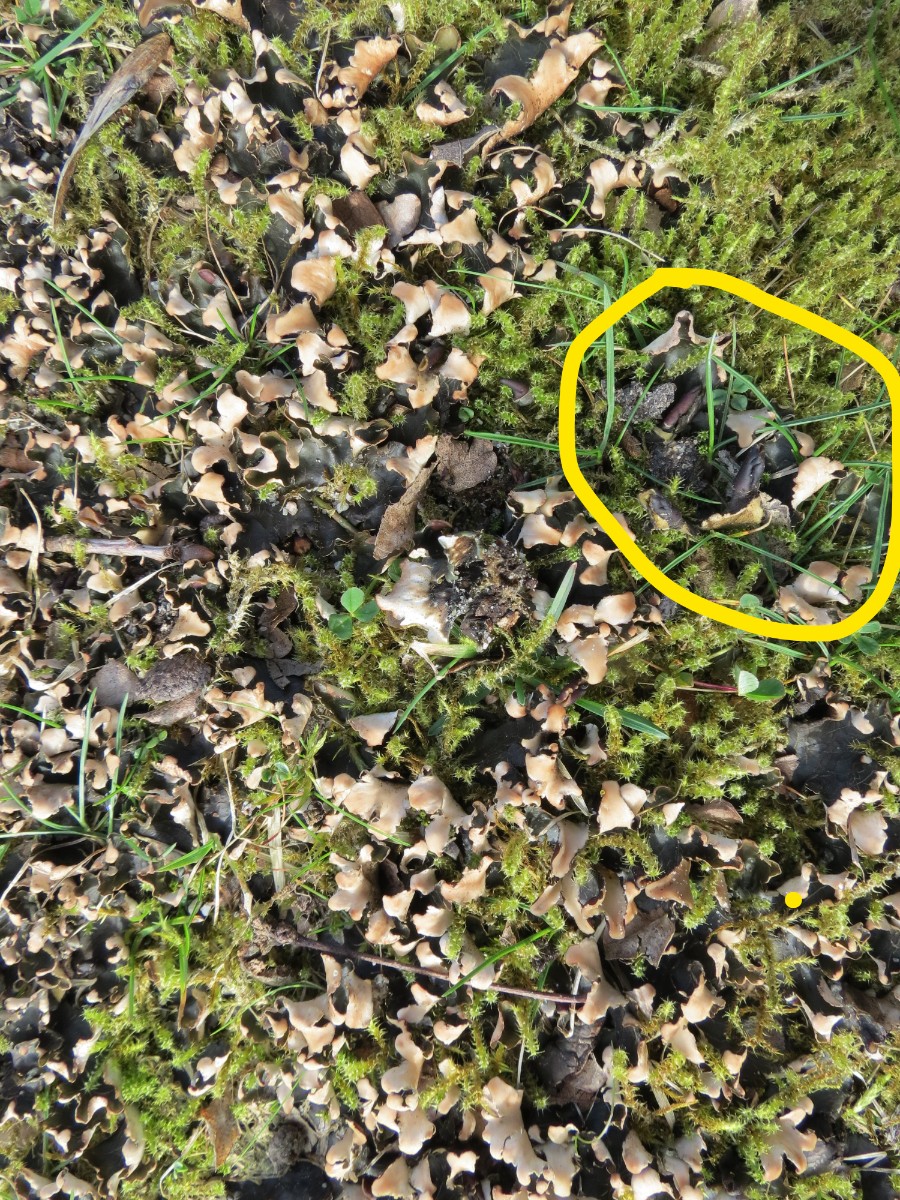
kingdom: Fungi
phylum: Ascomycota
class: Lecanoromycetes
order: Peltigerales
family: Peltigeraceae
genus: Peltigera
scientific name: Peltigera neckeri
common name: glinsende skjoldlav
